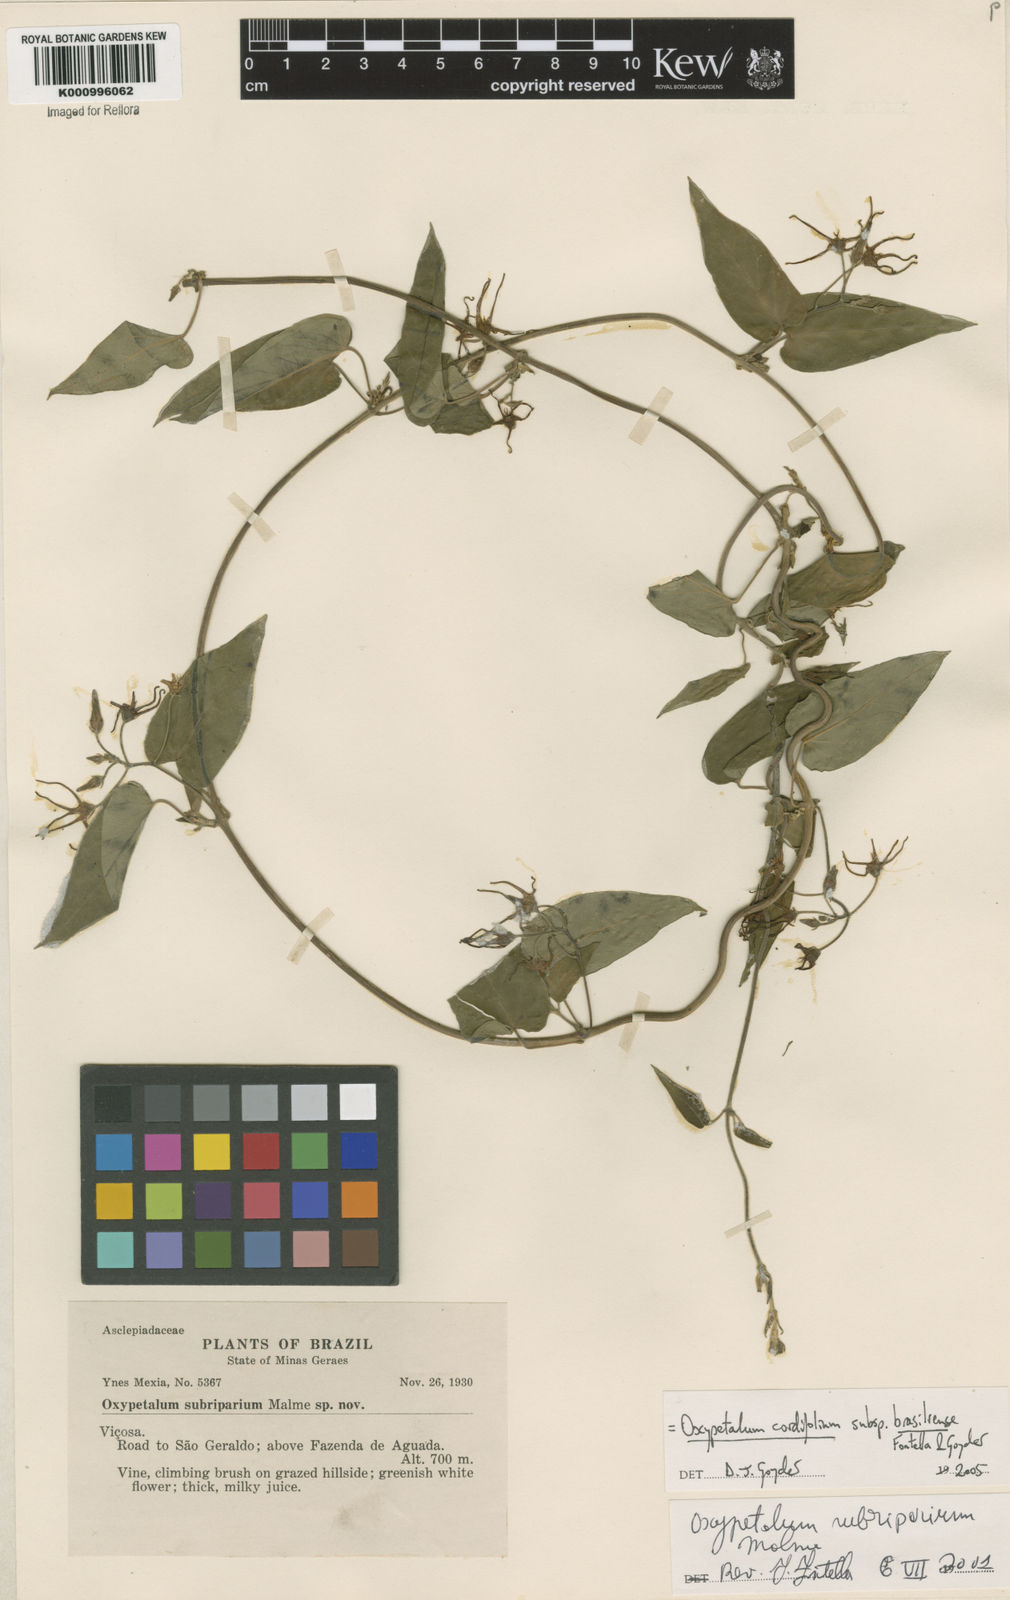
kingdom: Plantae
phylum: Tracheophyta
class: Magnoliopsida
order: Gentianales
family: Apocynaceae
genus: Oxypetalum
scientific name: Oxypetalum cordifolium
